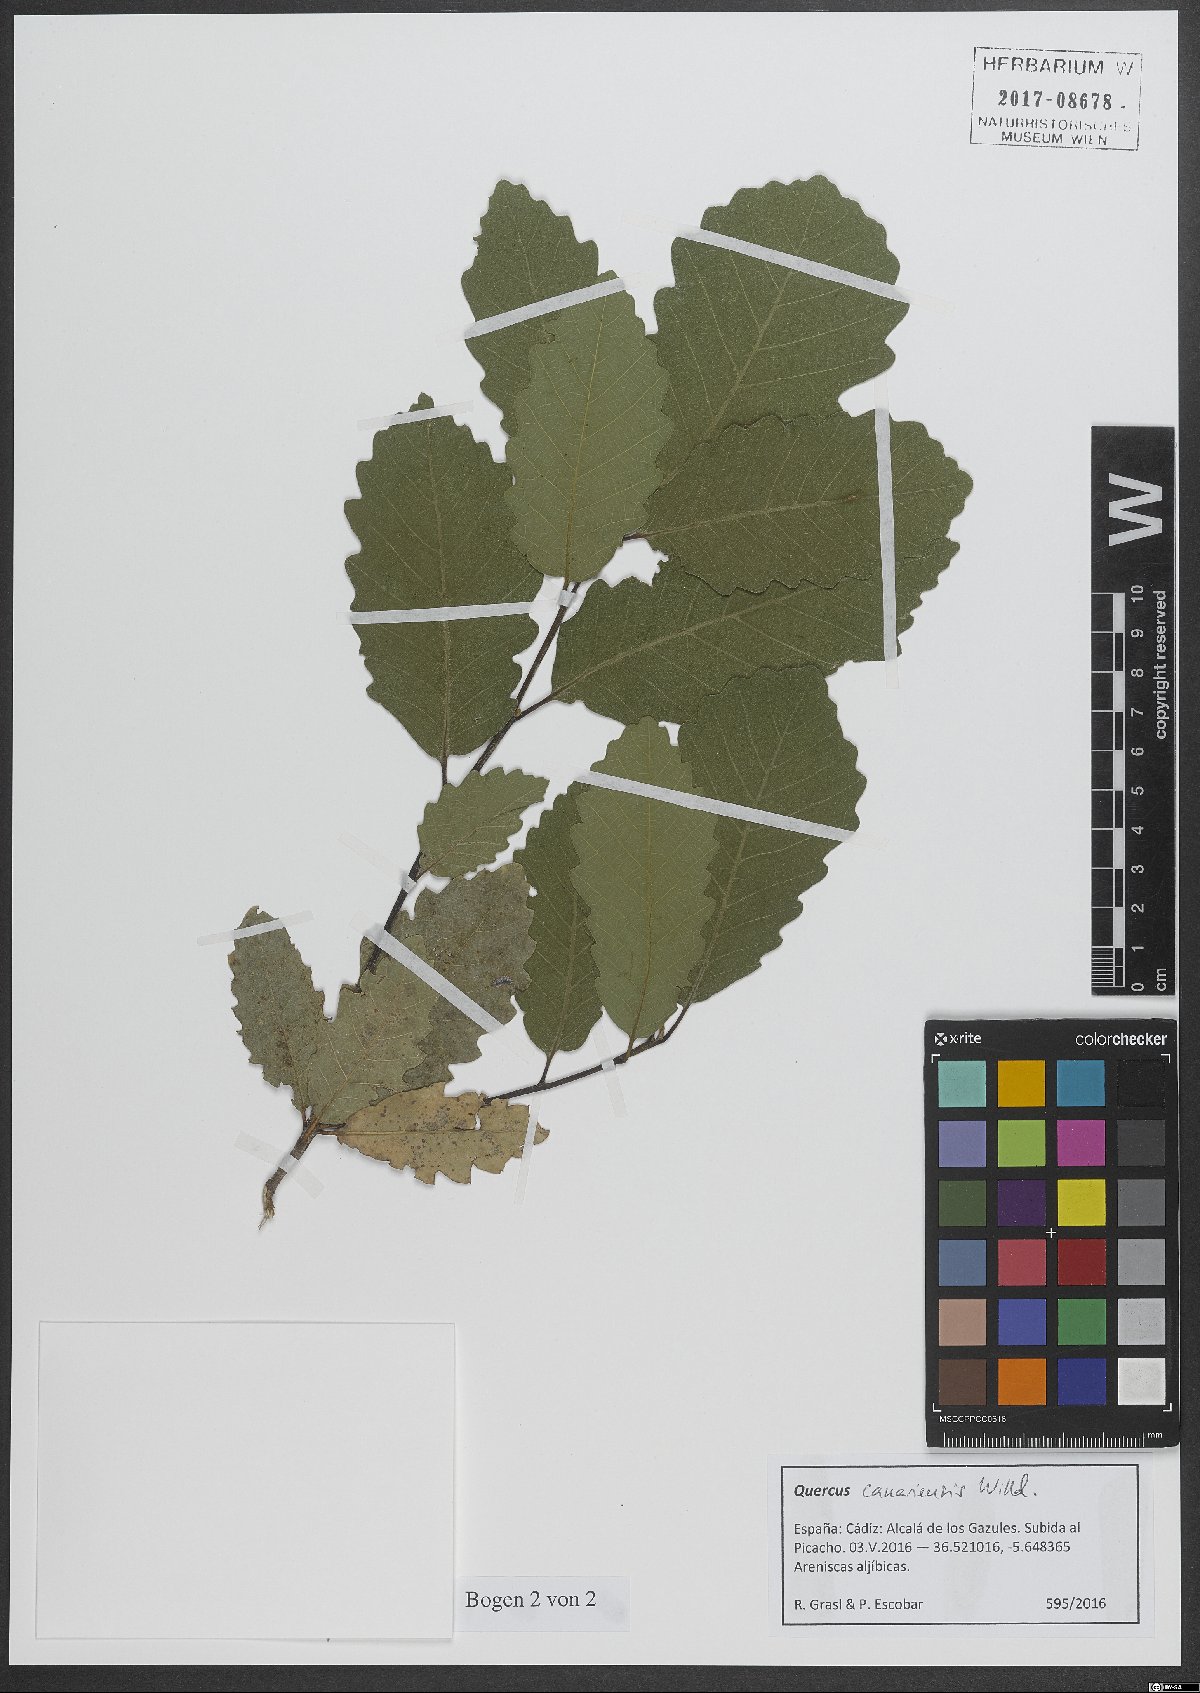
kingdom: Plantae
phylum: Tracheophyta
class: Magnoliopsida
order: Fagales
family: Fagaceae
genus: Quercus
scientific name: Quercus canariensis
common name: Algerian oak
